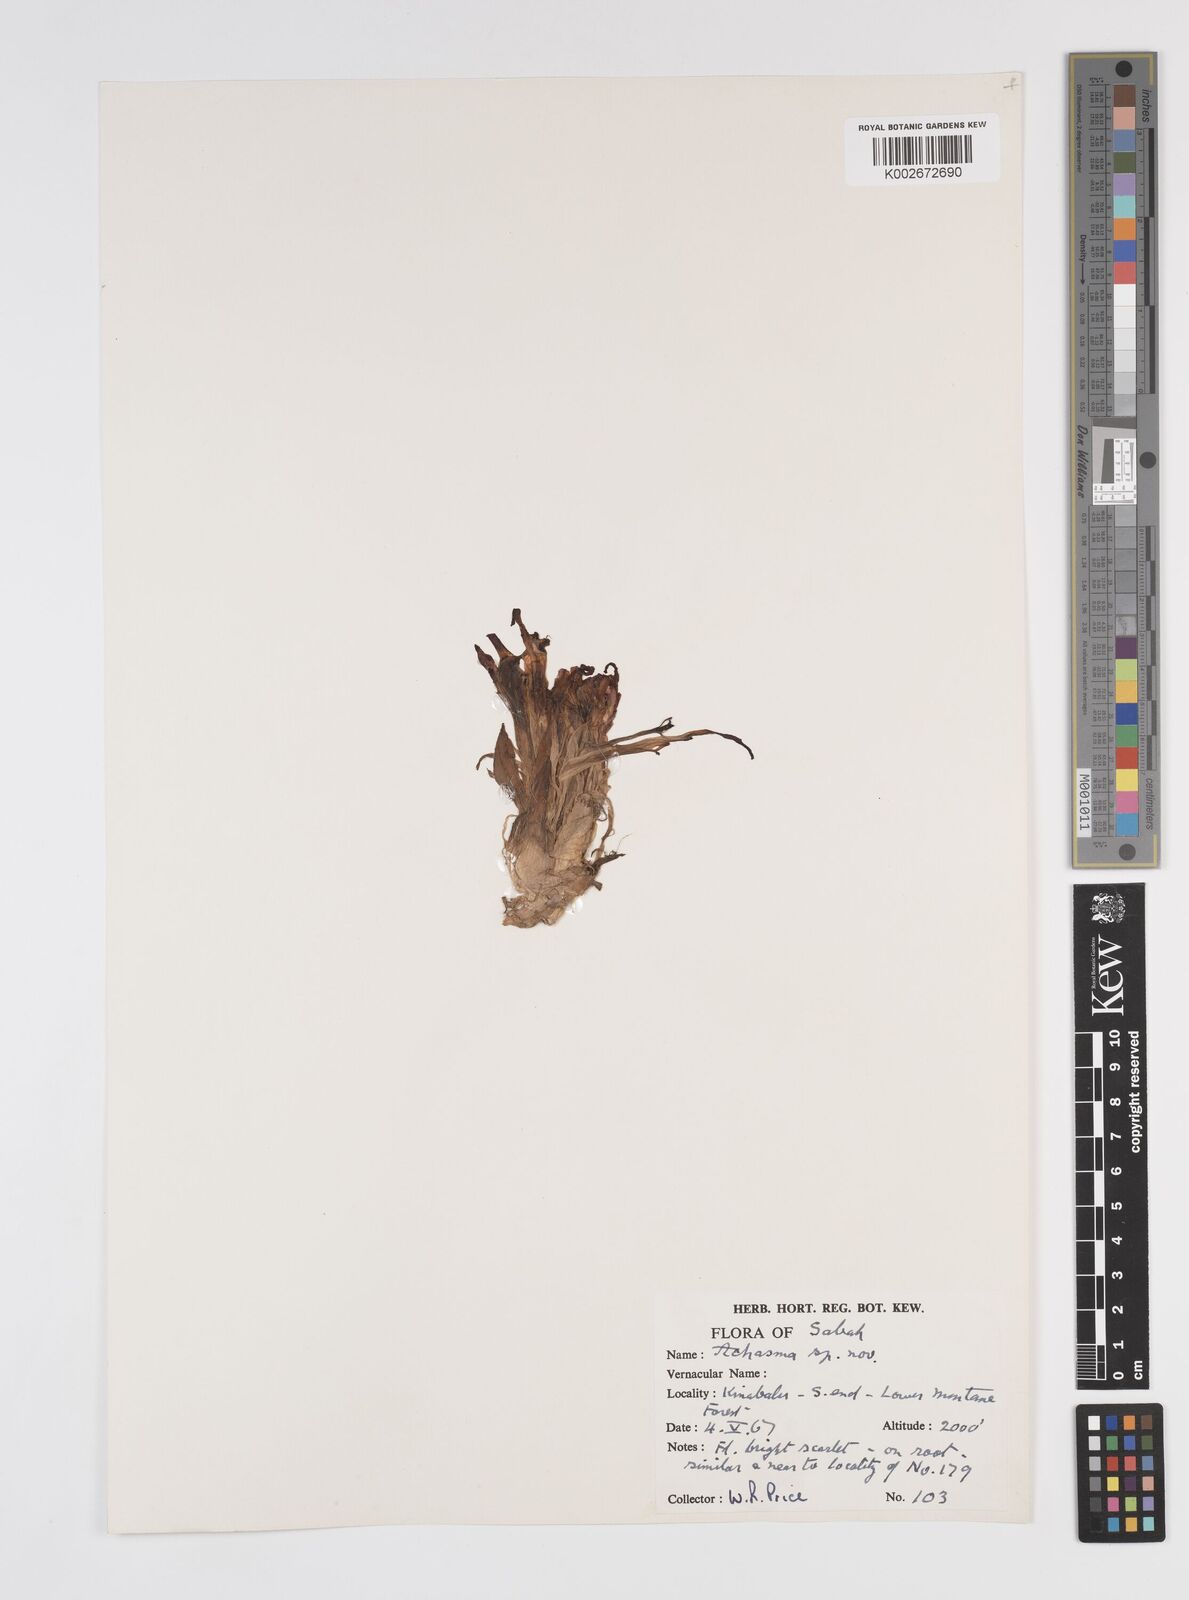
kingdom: Plantae
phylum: Tracheophyta
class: Liliopsida
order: Zingiberales
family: Zingiberaceae
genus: Etlingera
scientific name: Etlingera megalocheilos
